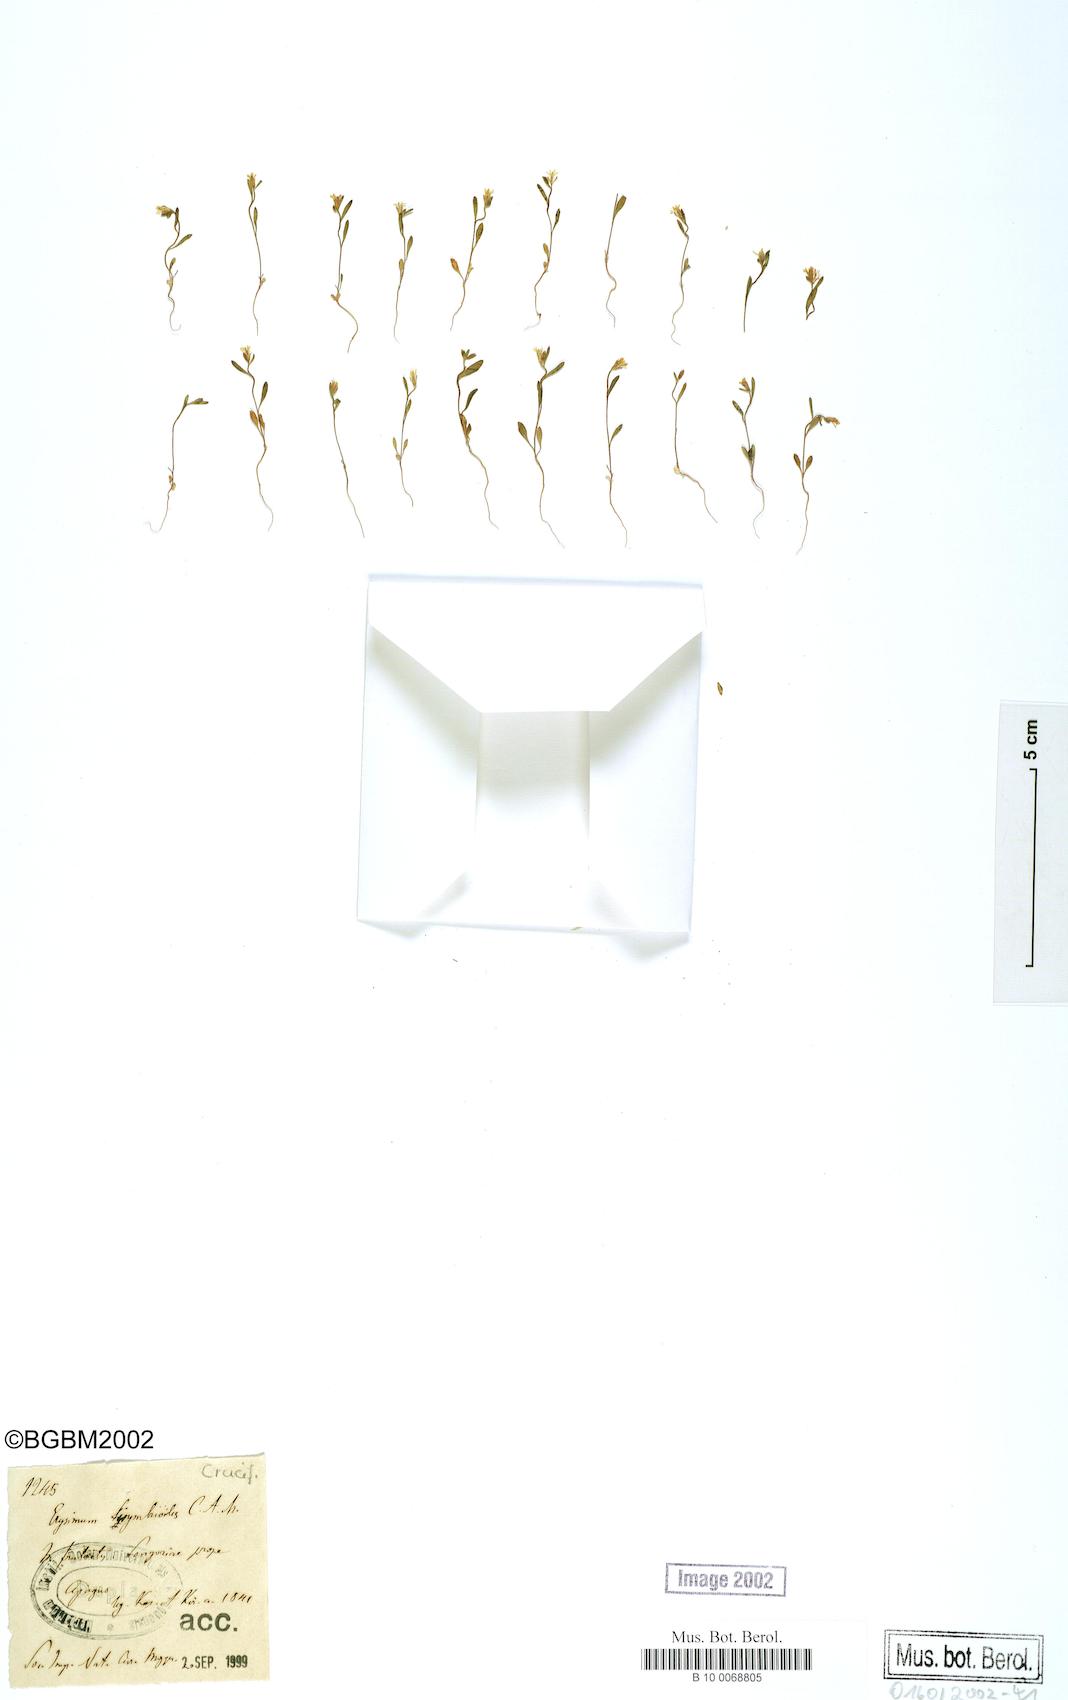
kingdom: Plantae
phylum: Tracheophyta
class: Magnoliopsida
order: Brassicales
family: Brassicaceae
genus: Erysimum
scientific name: Erysimum sisymbrioides
